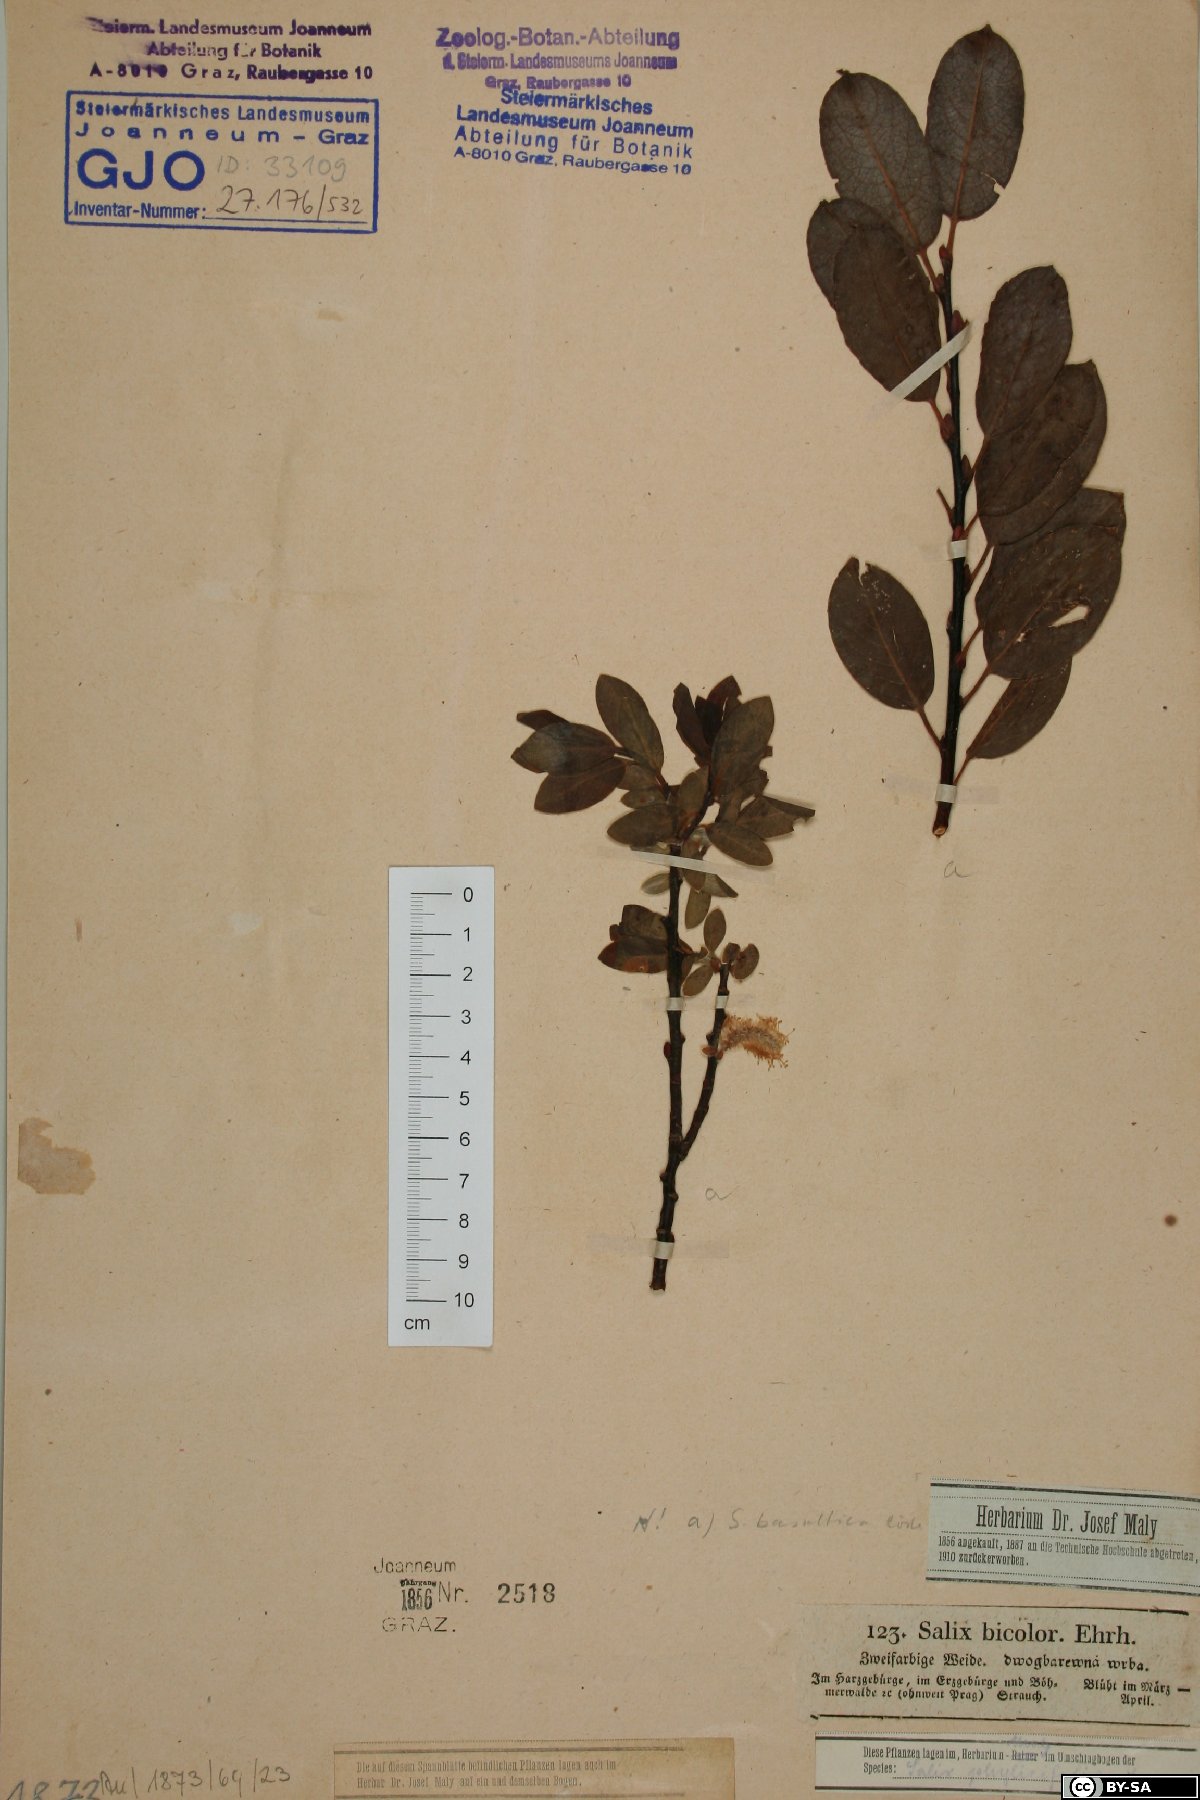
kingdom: Plantae
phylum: Tracheophyta
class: Magnoliopsida
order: Malpighiales
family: Salicaceae
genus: Salix
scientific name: Salix basaltica
